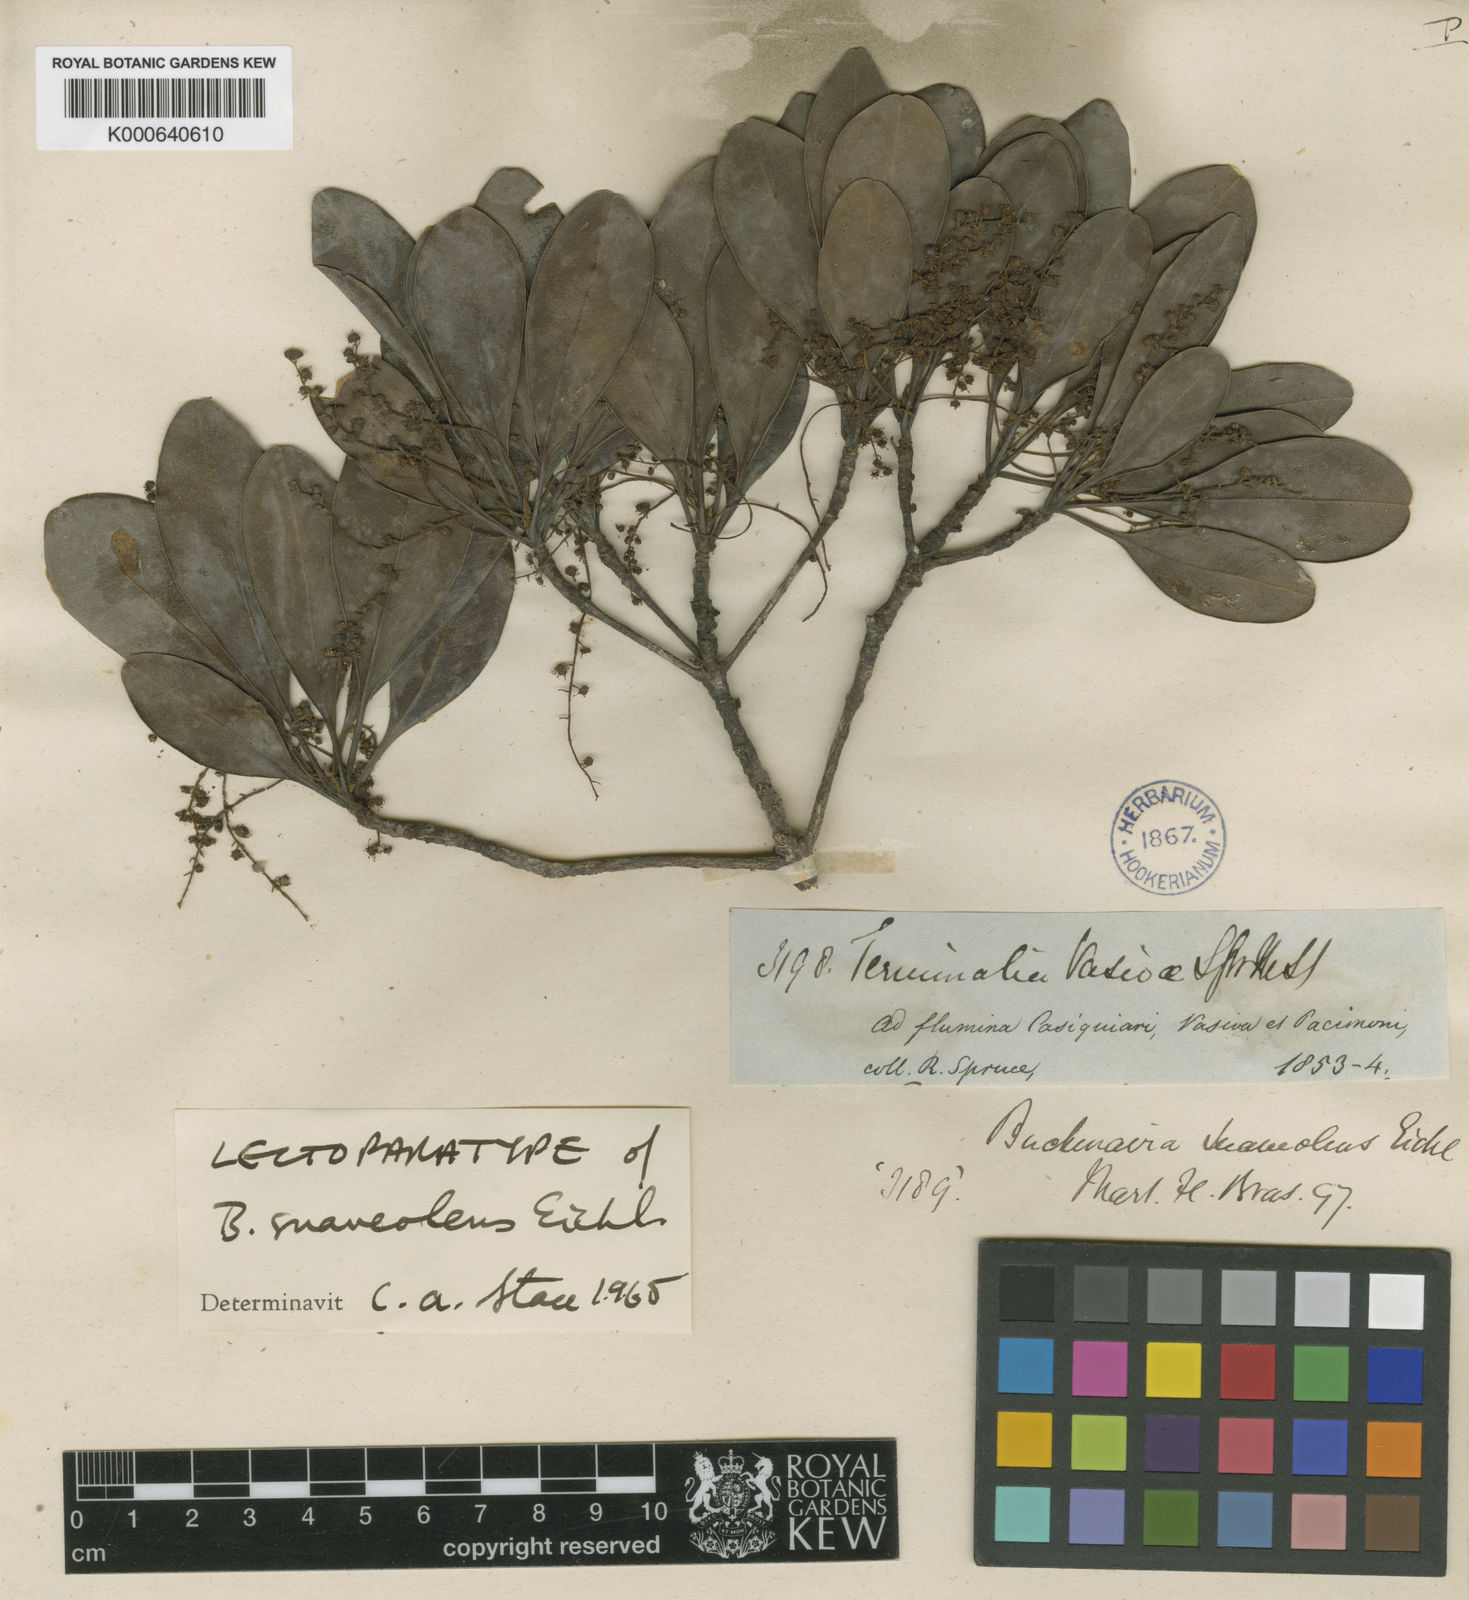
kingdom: Plantae
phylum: Tracheophyta
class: Magnoliopsida
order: Myrtales
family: Combretaceae
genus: Terminalia
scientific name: Terminalia suaveolens
